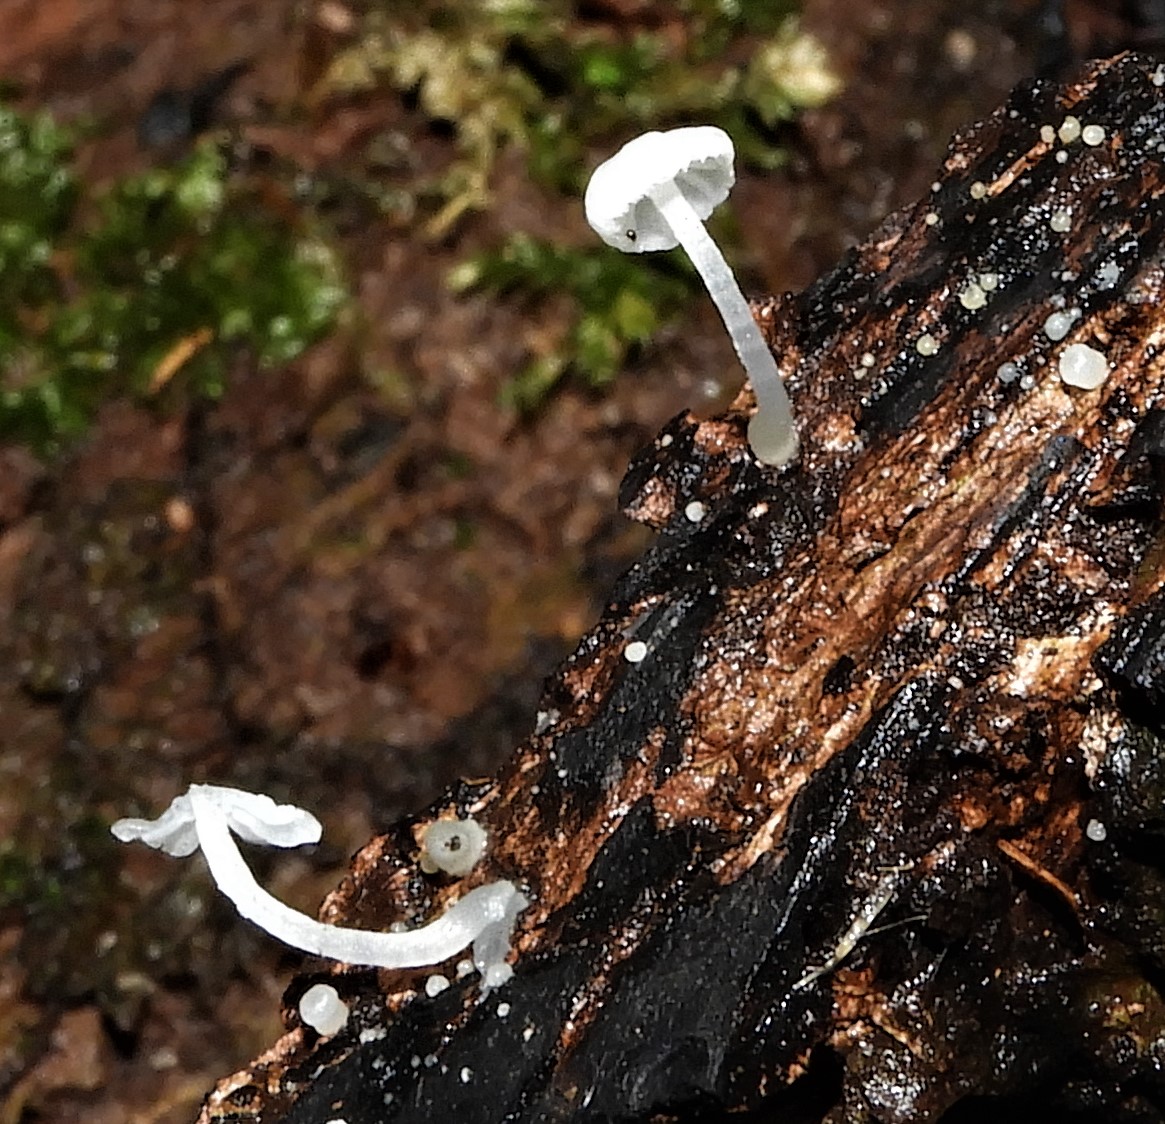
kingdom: Fungi
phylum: Basidiomycota
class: Agaricomycetes
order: Agaricales
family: Tricholomataceae
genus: Delicatula
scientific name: Delicatula integrella
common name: slørhuesvamp
